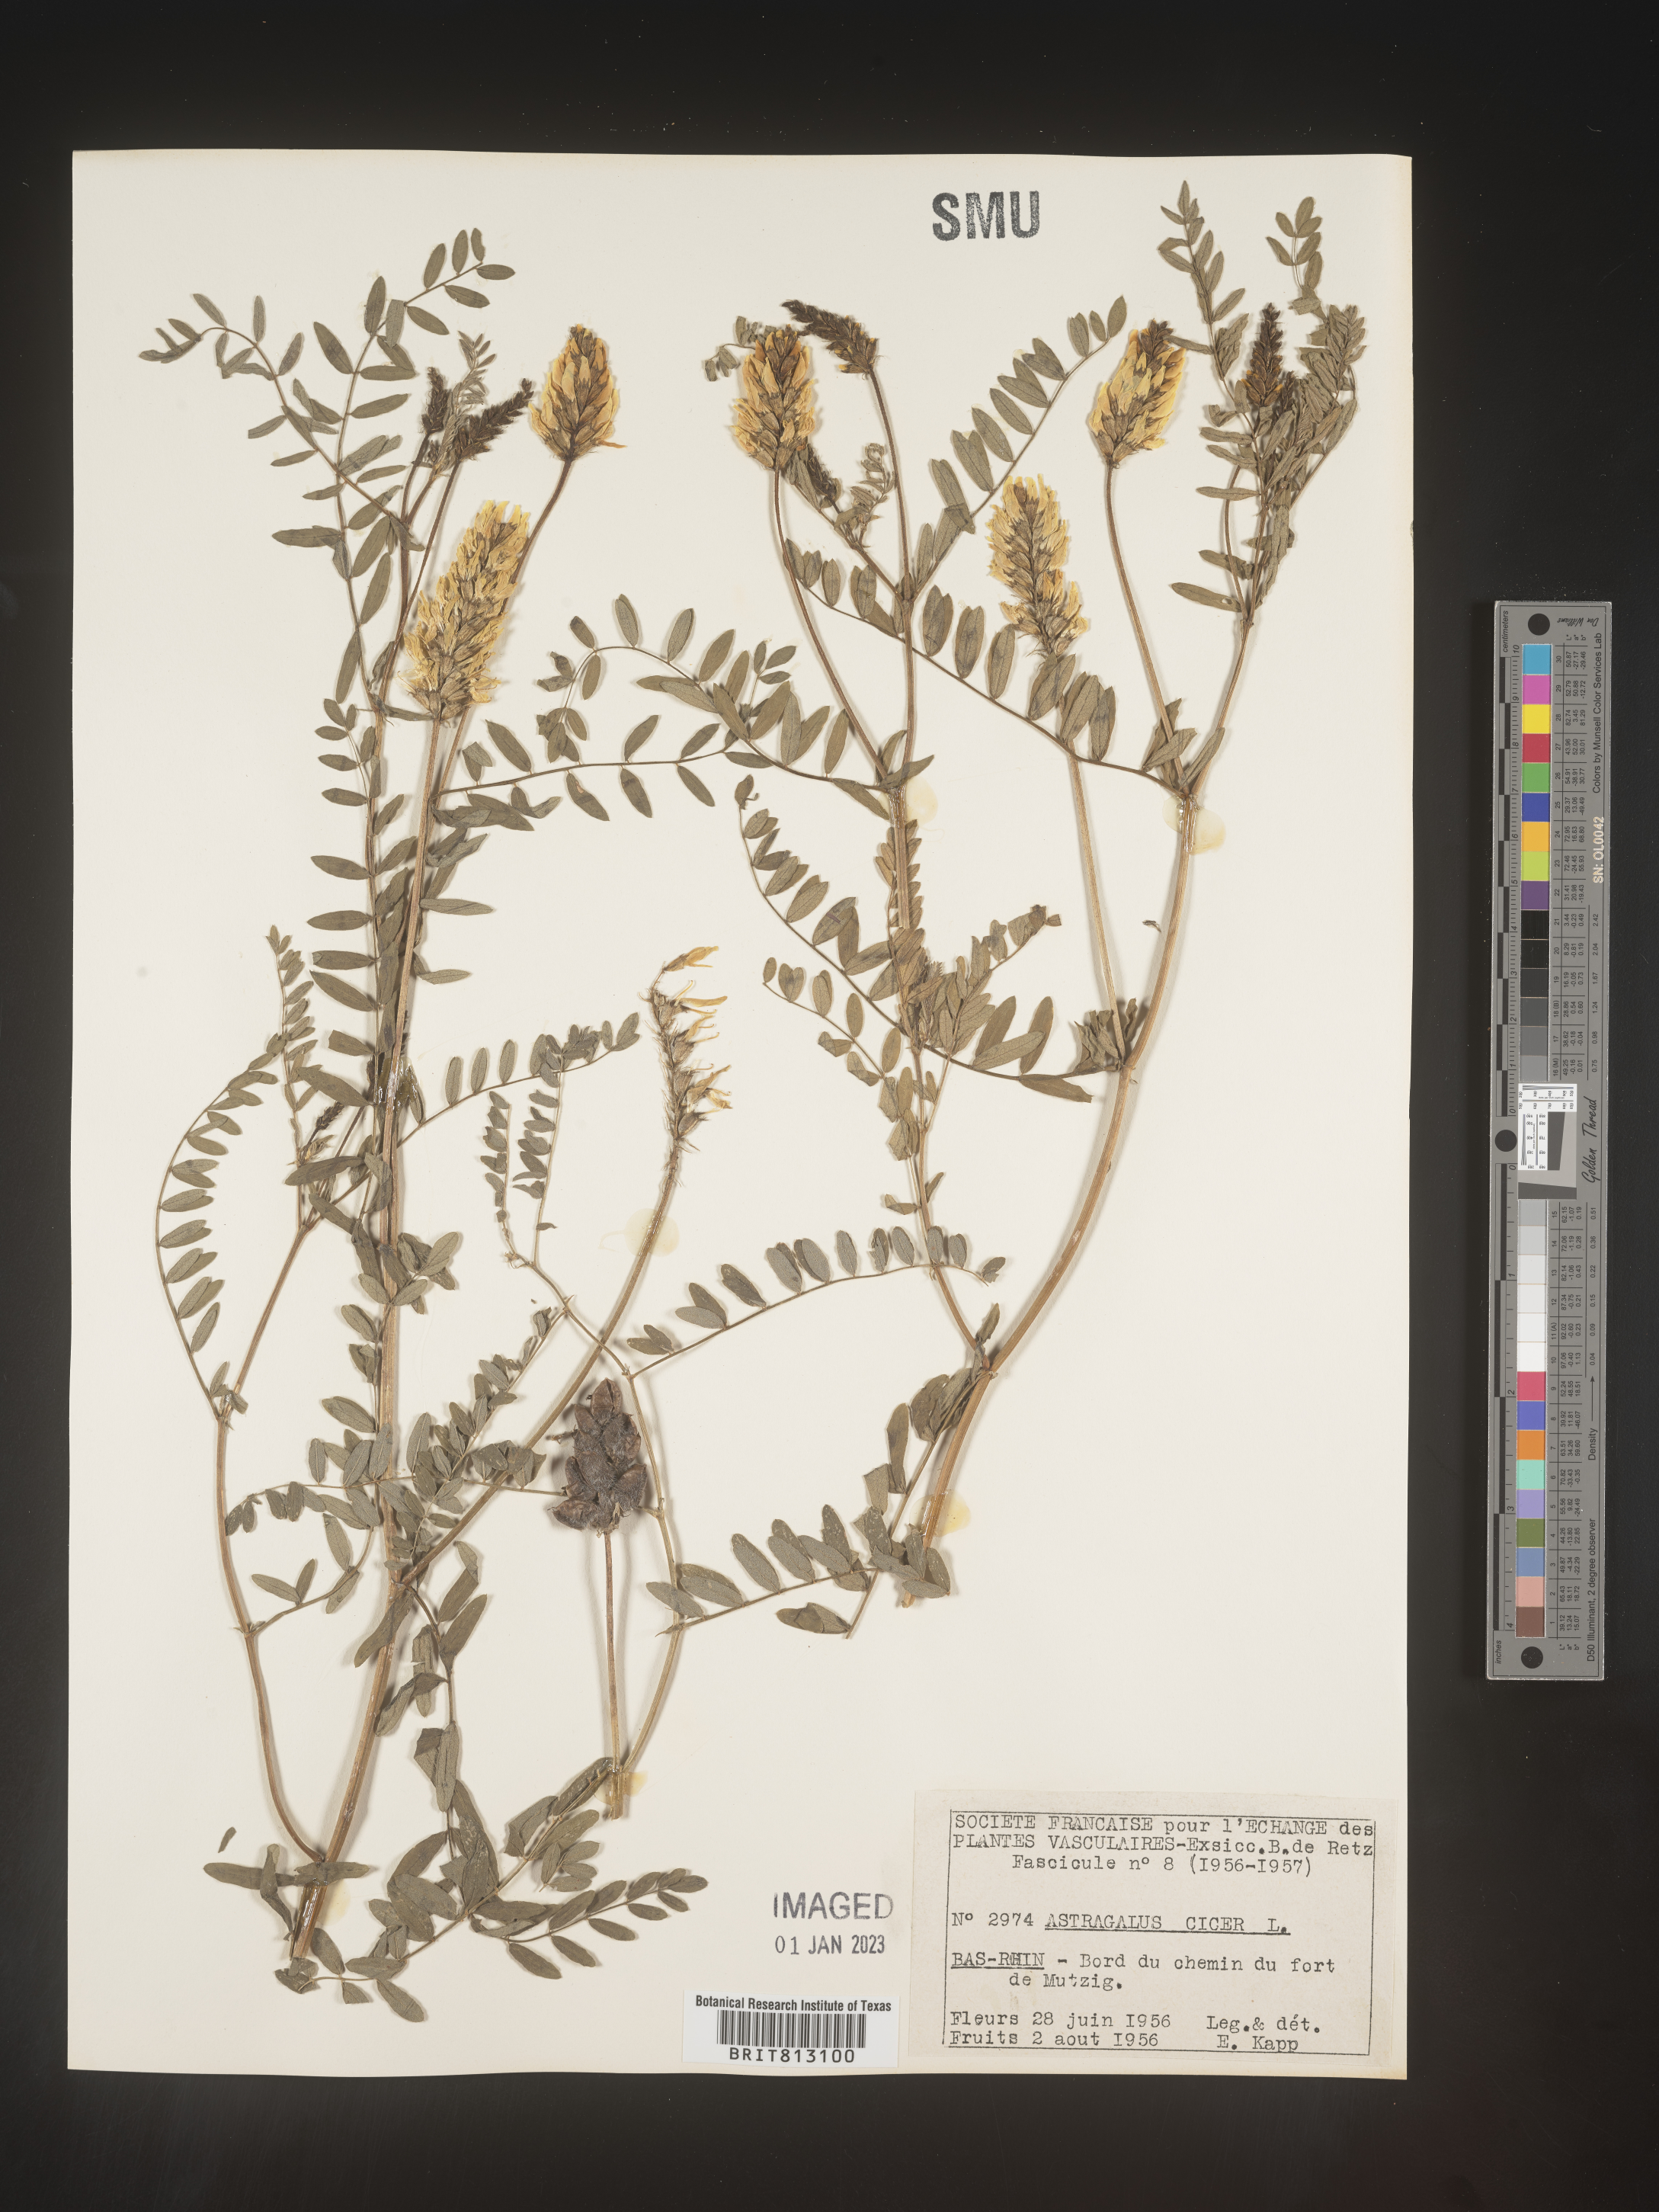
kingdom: Plantae
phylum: Tracheophyta
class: Magnoliopsida
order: Fabales
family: Fabaceae
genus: Astragalus
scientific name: Astragalus
